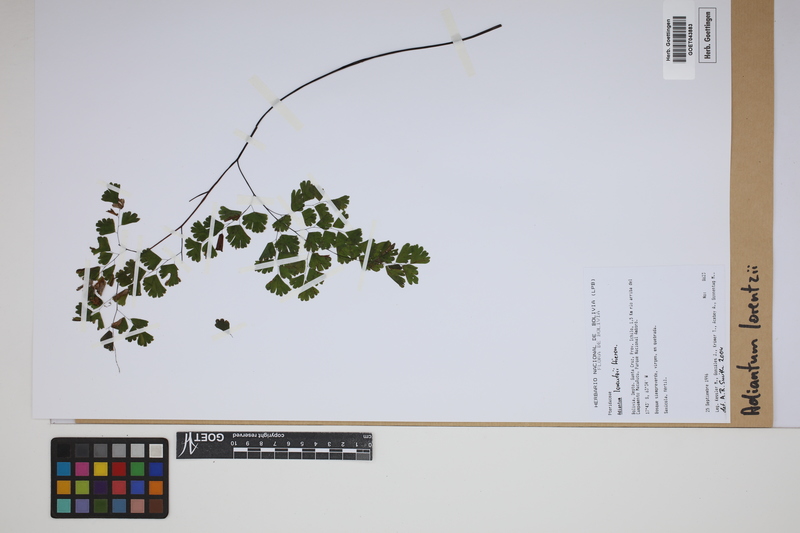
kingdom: Plantae
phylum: Tracheophyta
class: Polypodiopsida
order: Polypodiales
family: Pteridaceae
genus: Adiantum
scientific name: Adiantum lorentzii
